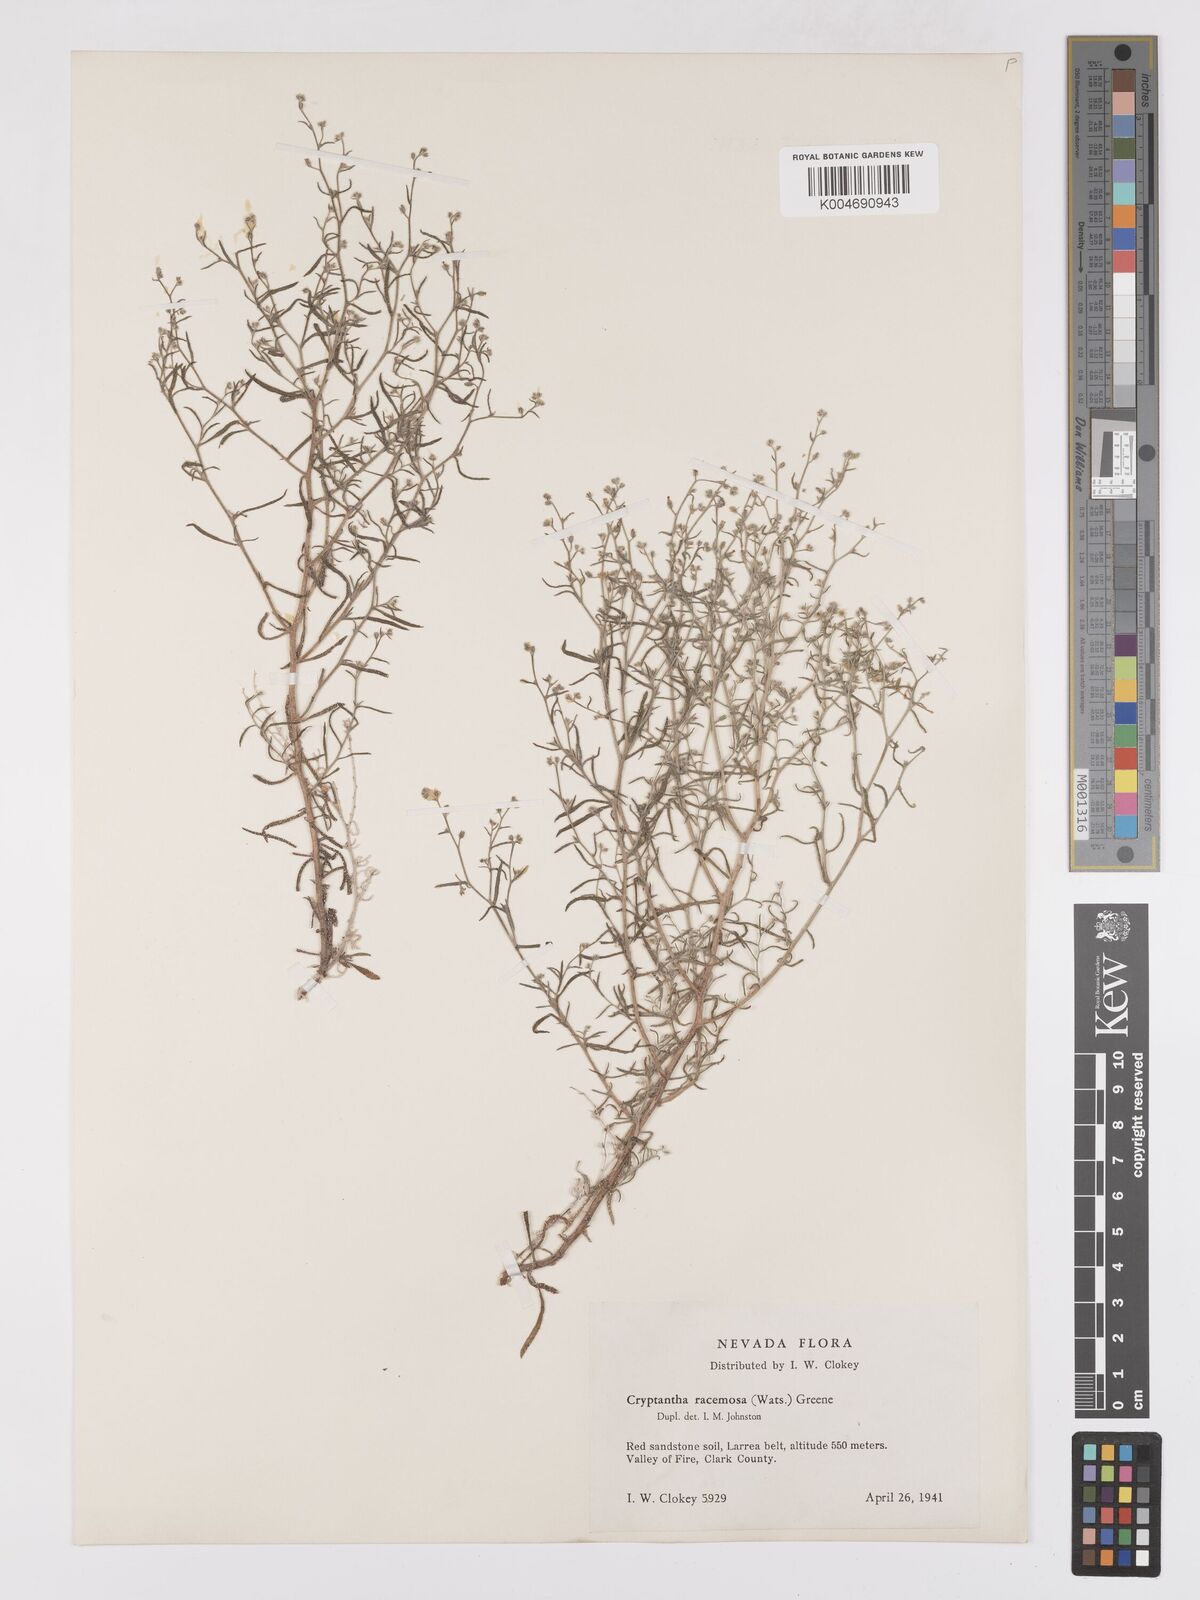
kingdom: Plantae
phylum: Tracheophyta
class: Magnoliopsida
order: Boraginales
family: Boraginaceae
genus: Johnstonella
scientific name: Johnstonella racemosa
